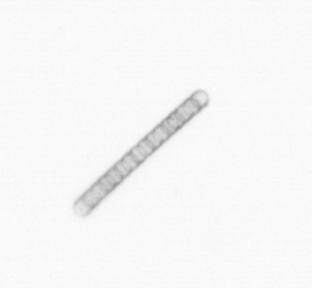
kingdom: Chromista
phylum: Ochrophyta
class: Bacillariophyceae
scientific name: Bacillariophyceae
